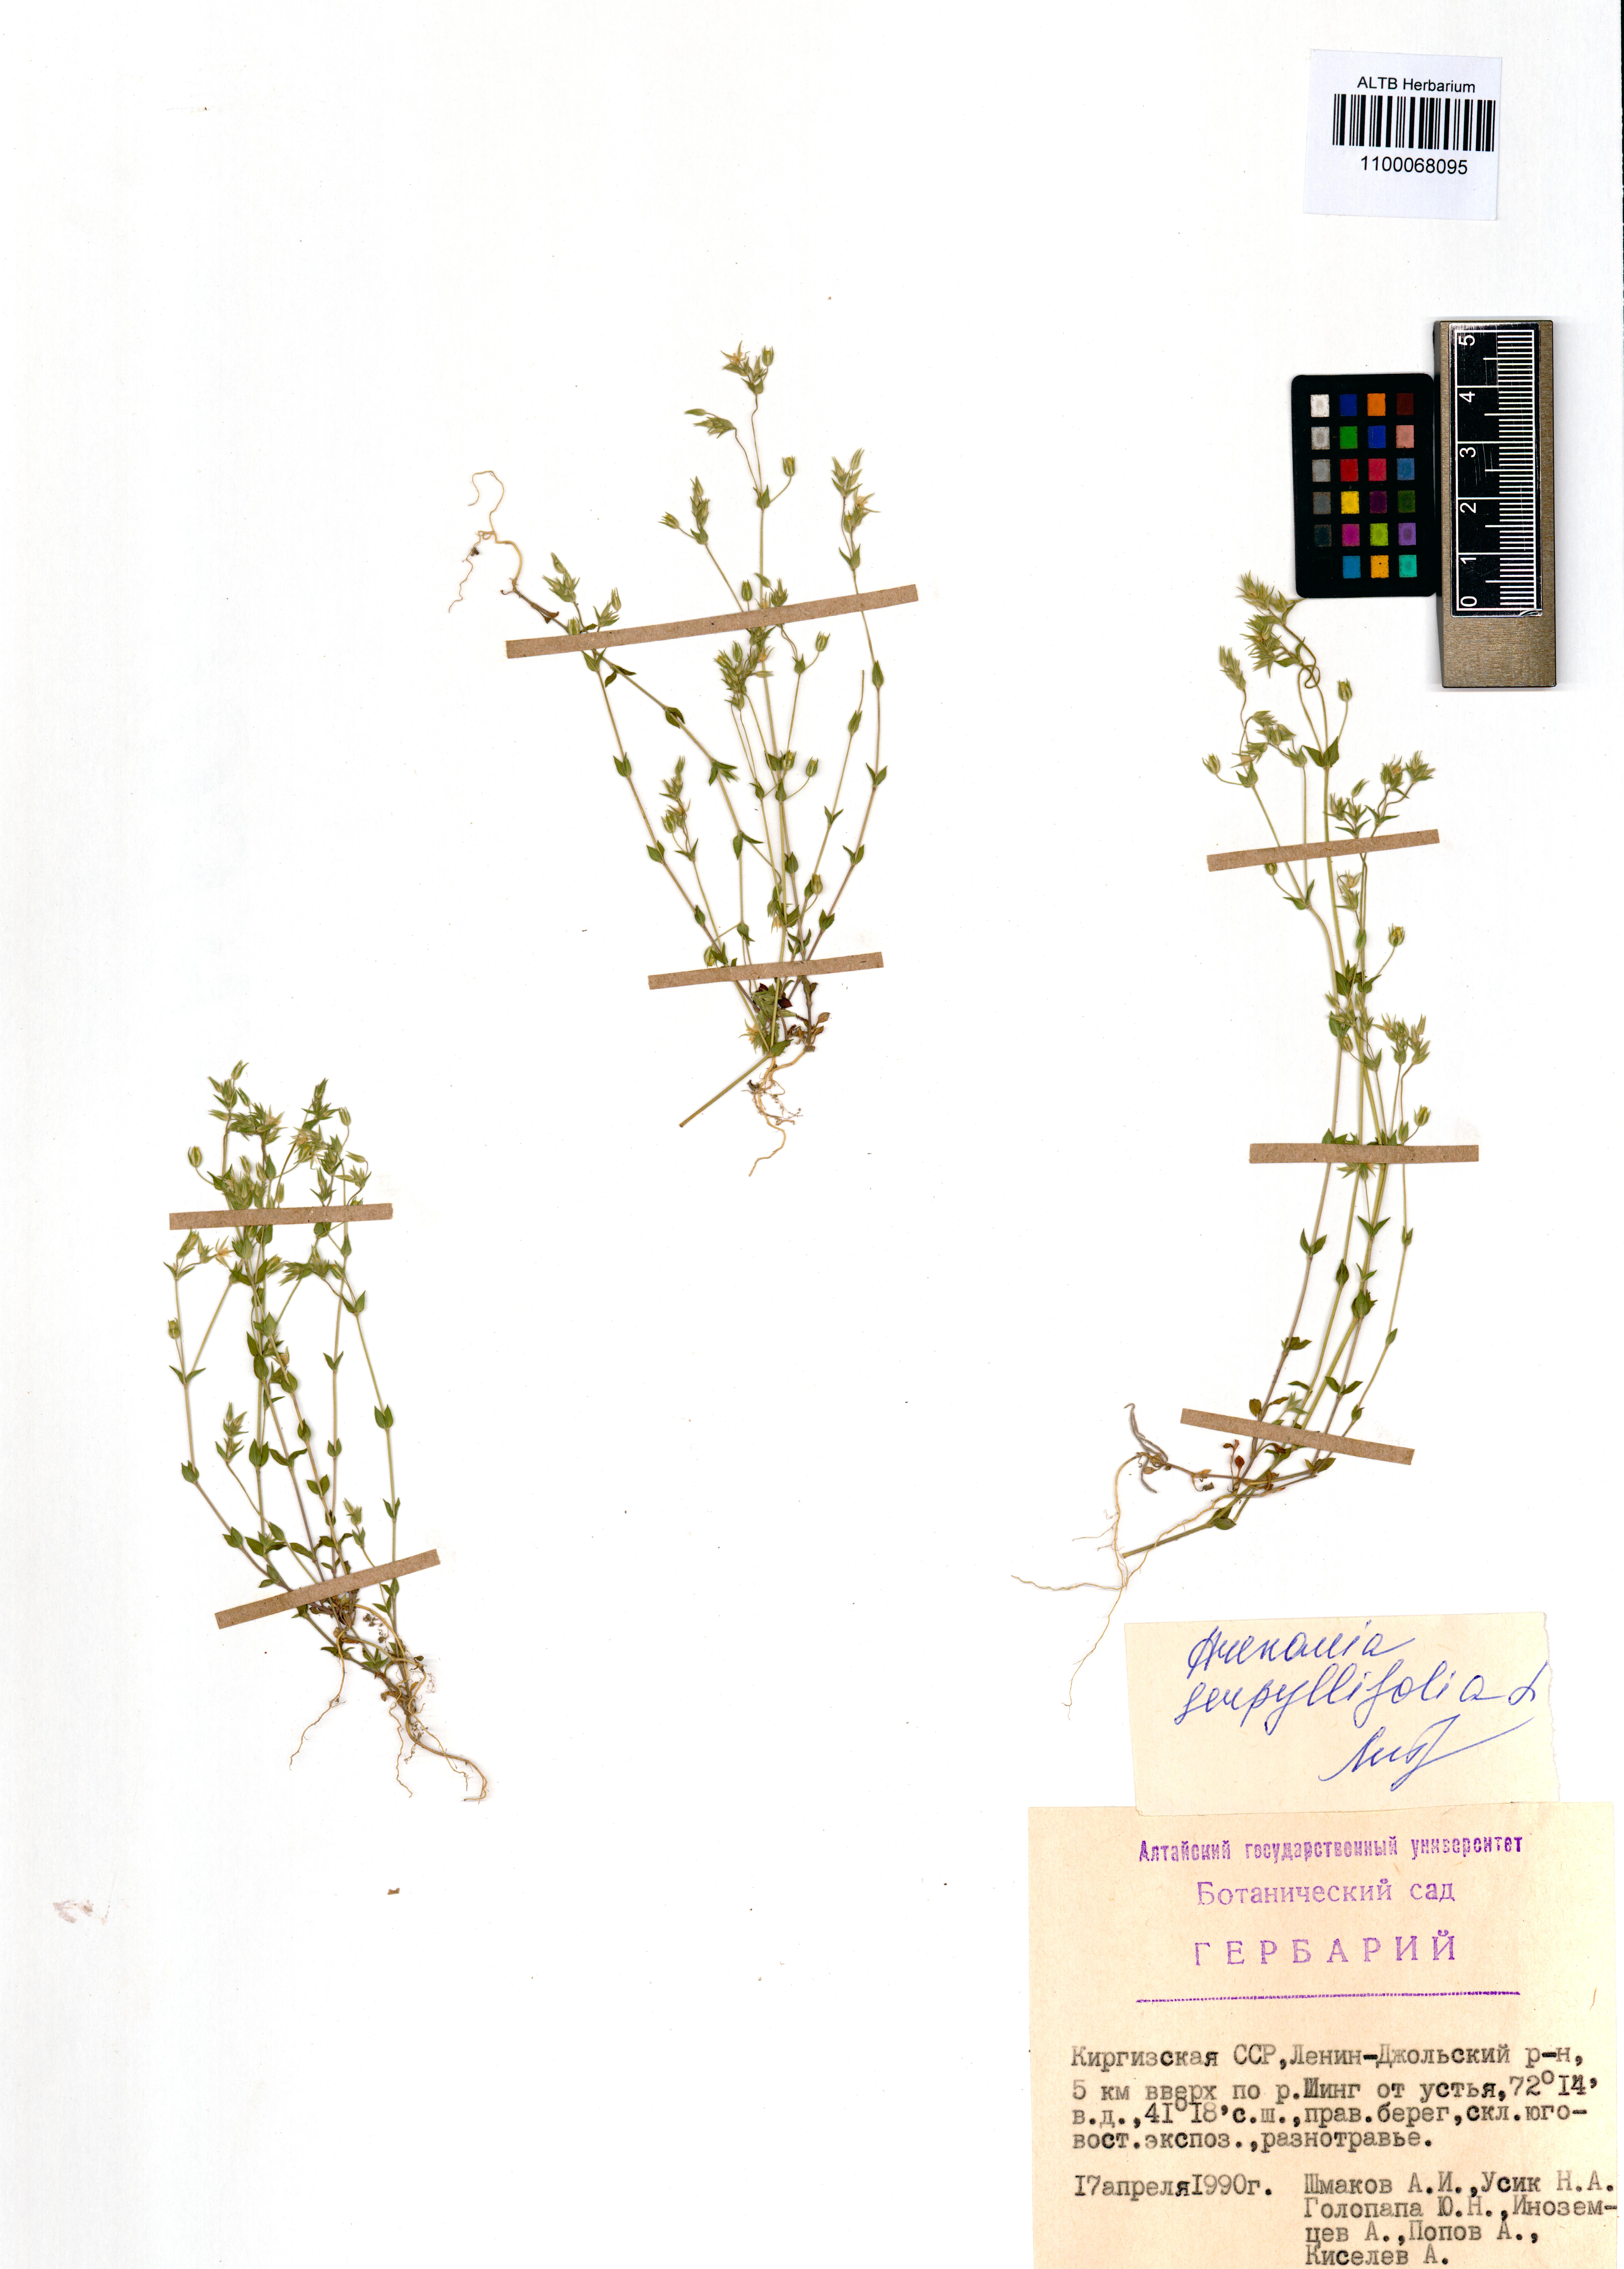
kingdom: Plantae
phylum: Tracheophyta
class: Magnoliopsida
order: Caryophyllales
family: Caryophyllaceae
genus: Arenaria
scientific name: Arenaria serpyllifolia
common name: Thyme-leaved sandwort
